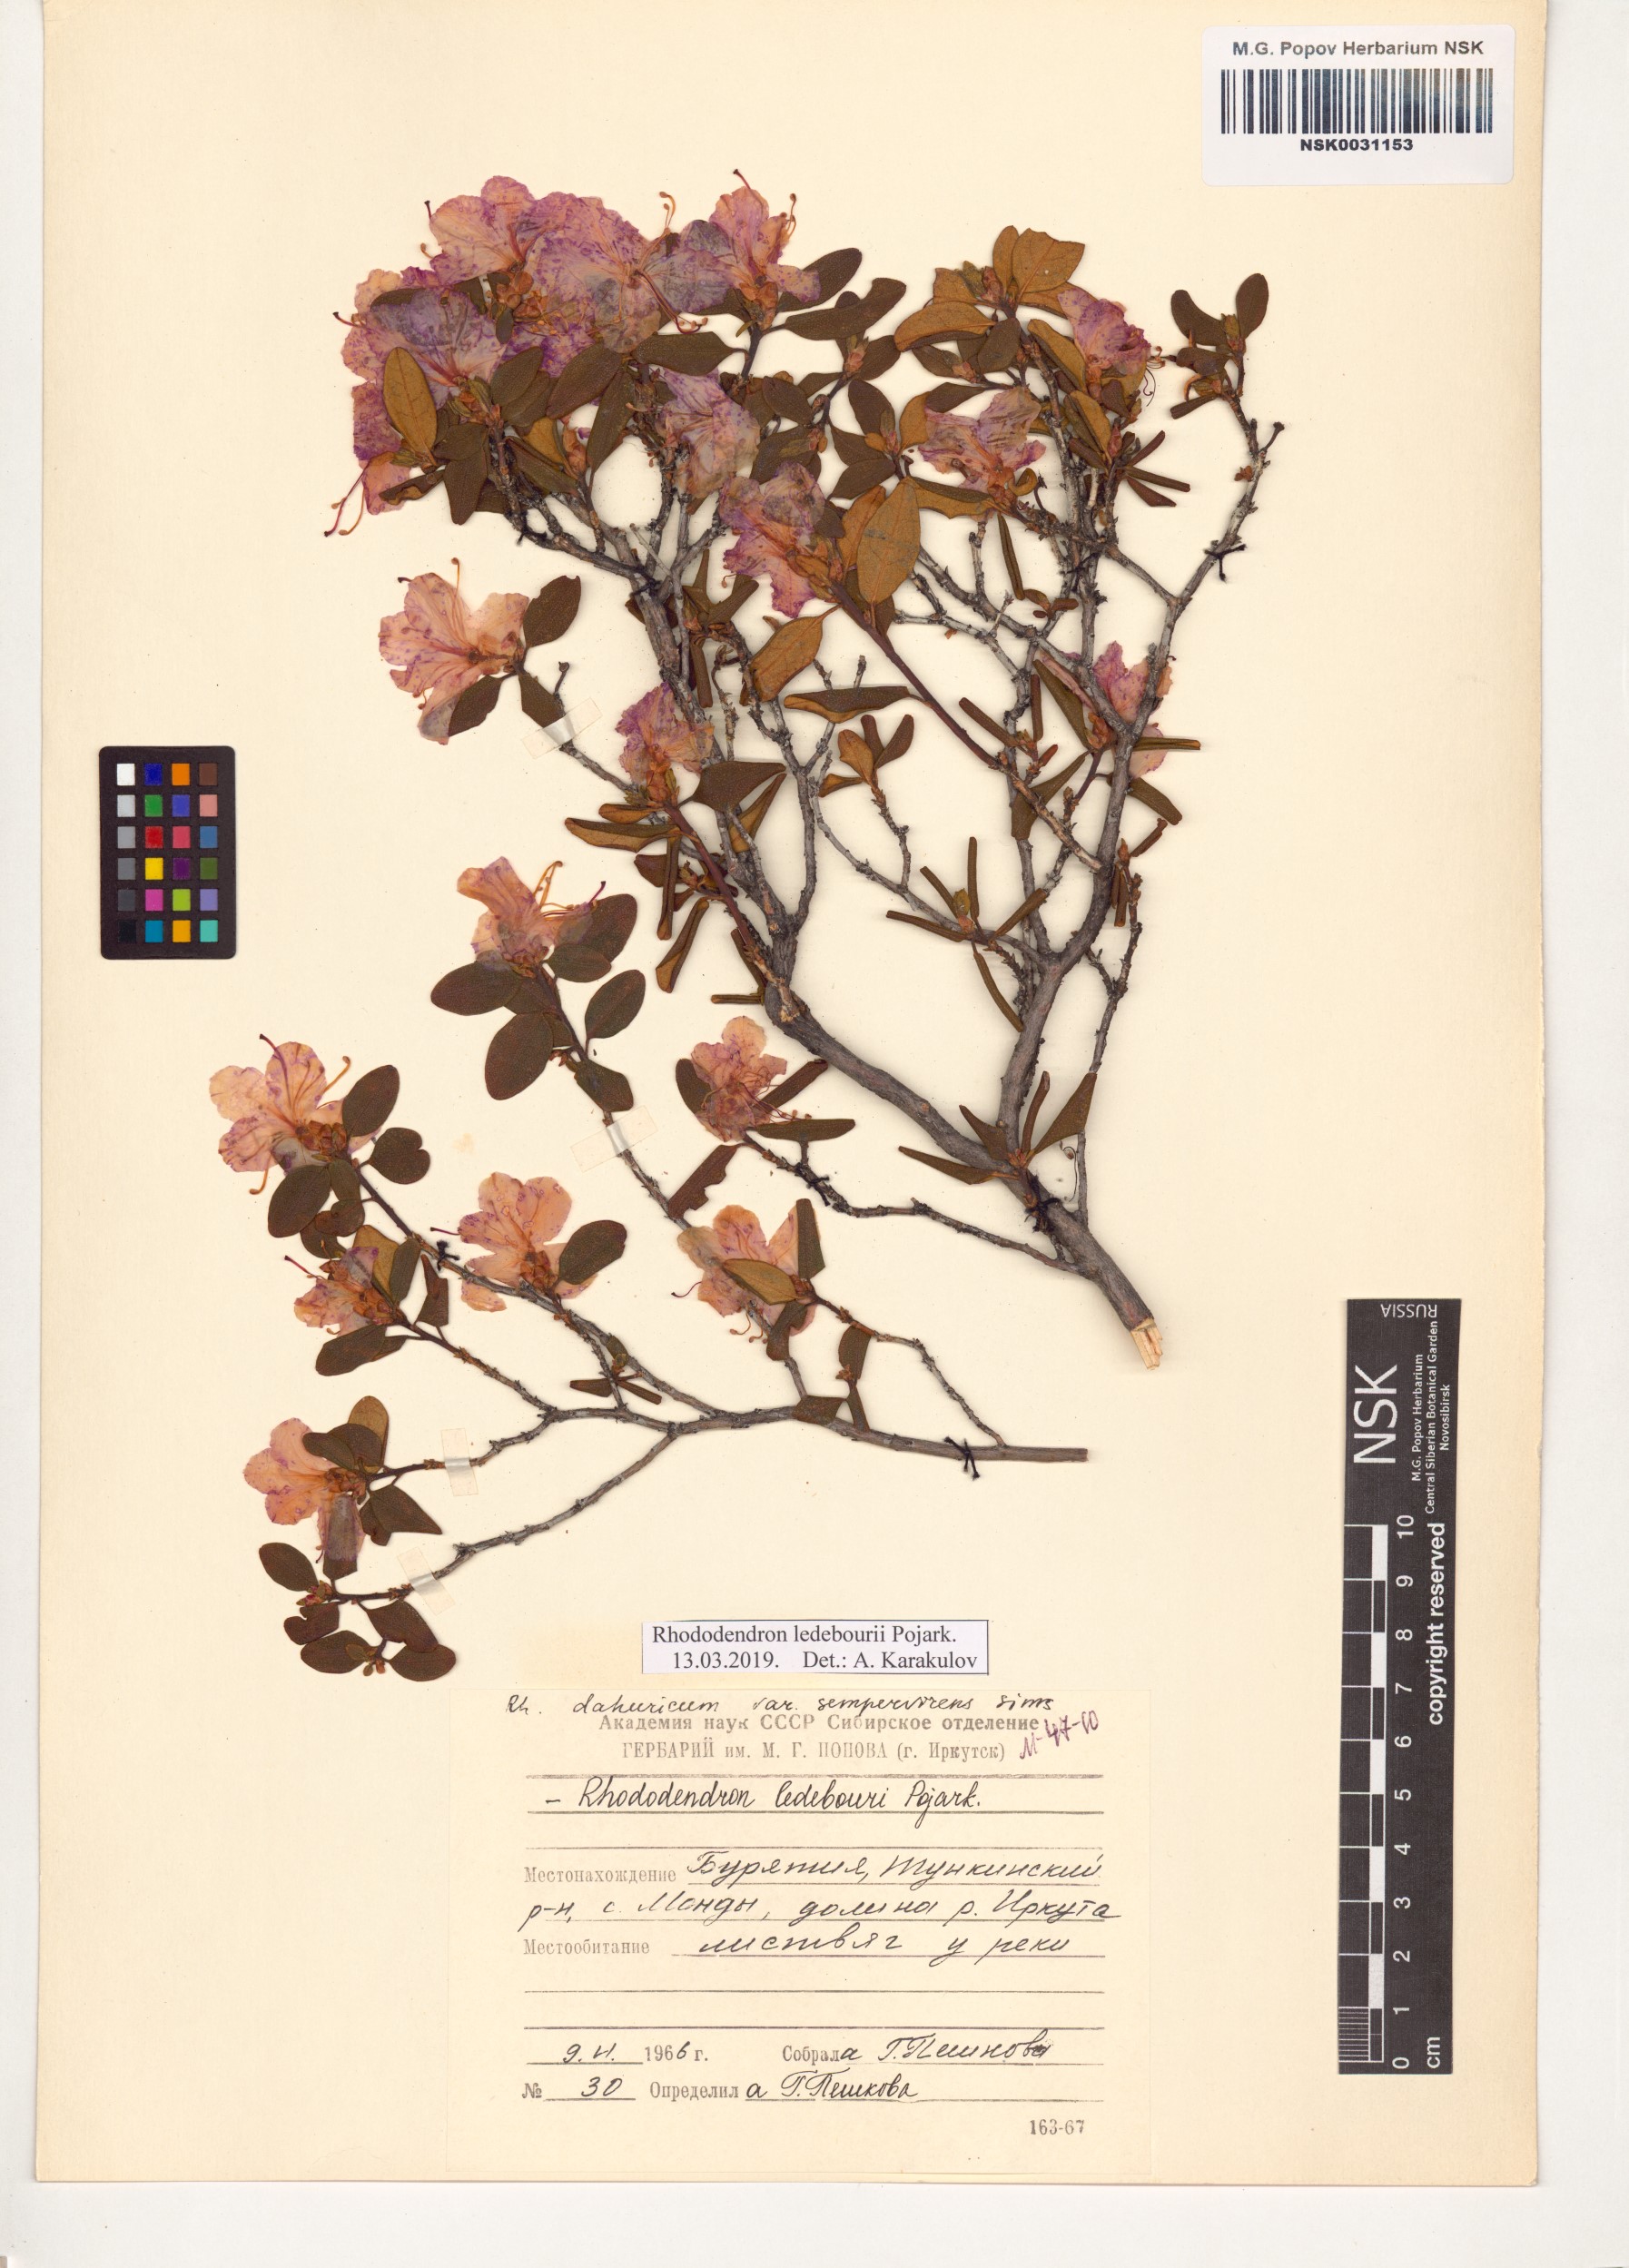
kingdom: Plantae
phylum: Tracheophyta
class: Magnoliopsida
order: Ericales
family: Ericaceae
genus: Rhododendron
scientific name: Rhododendron dauricum
